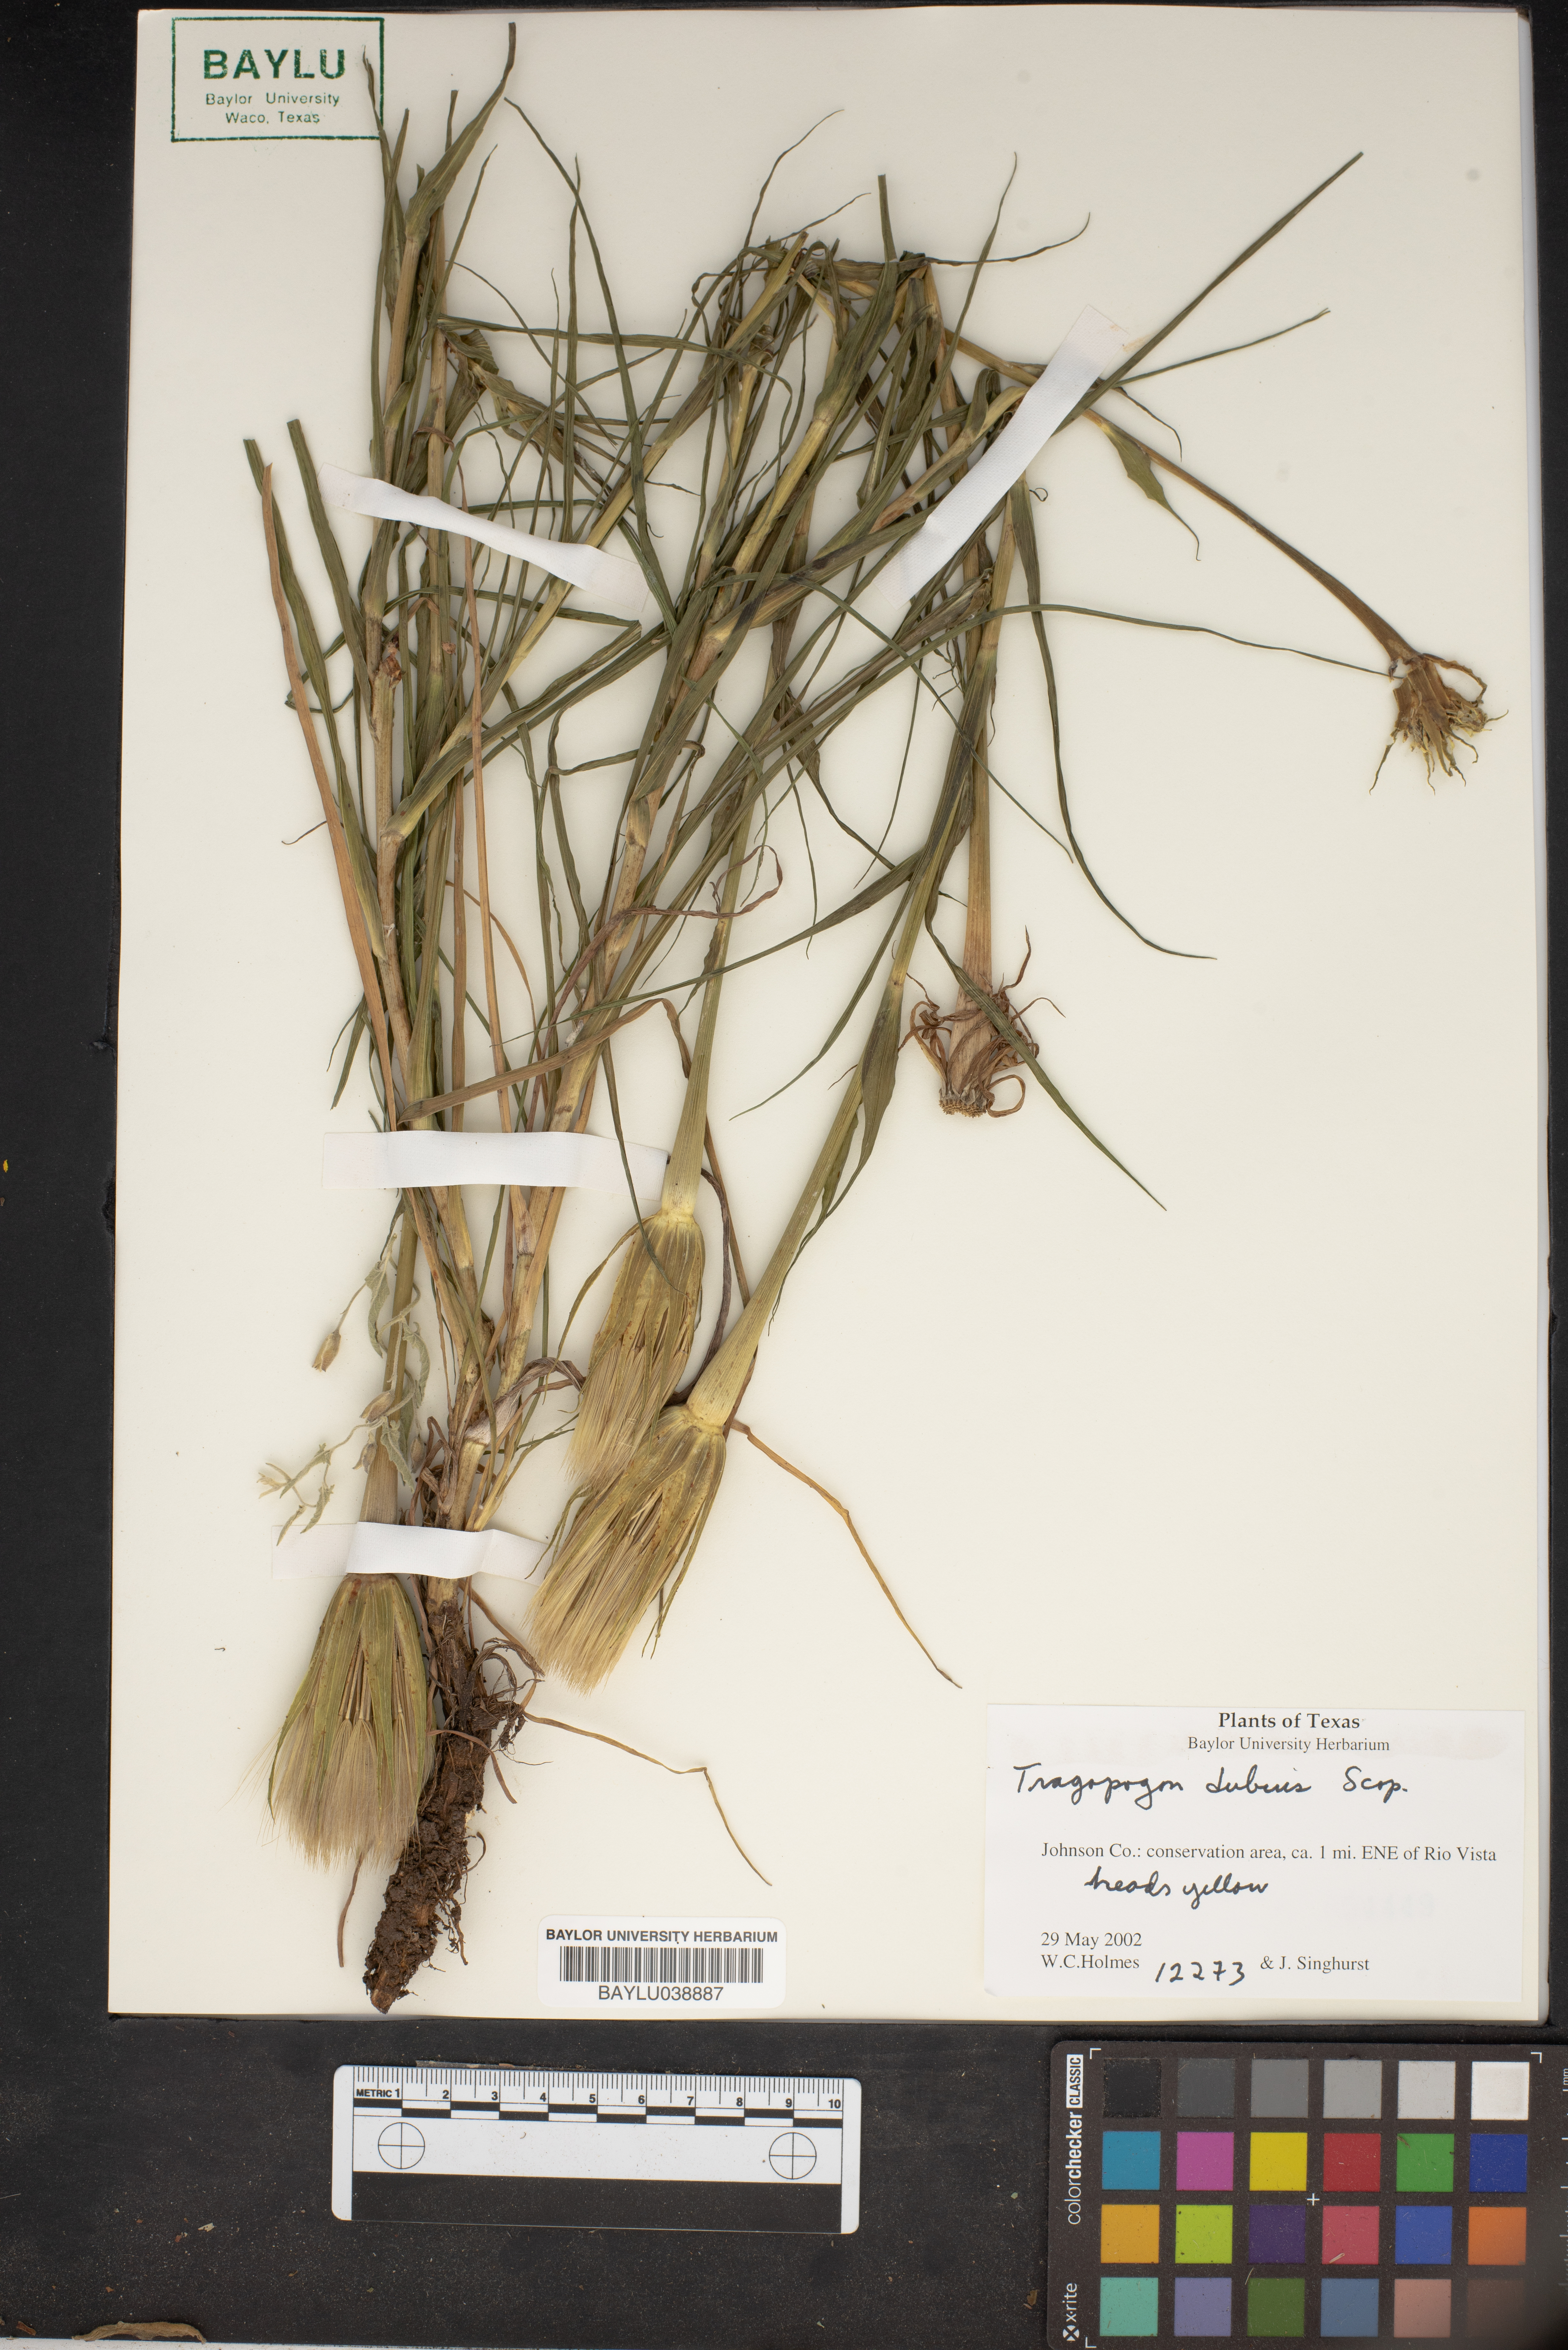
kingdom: Plantae
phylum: Tracheophyta
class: Magnoliopsida
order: Asterales
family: Asteraceae
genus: Tragopogon
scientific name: Tragopogon dubius
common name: Yellow salsify
